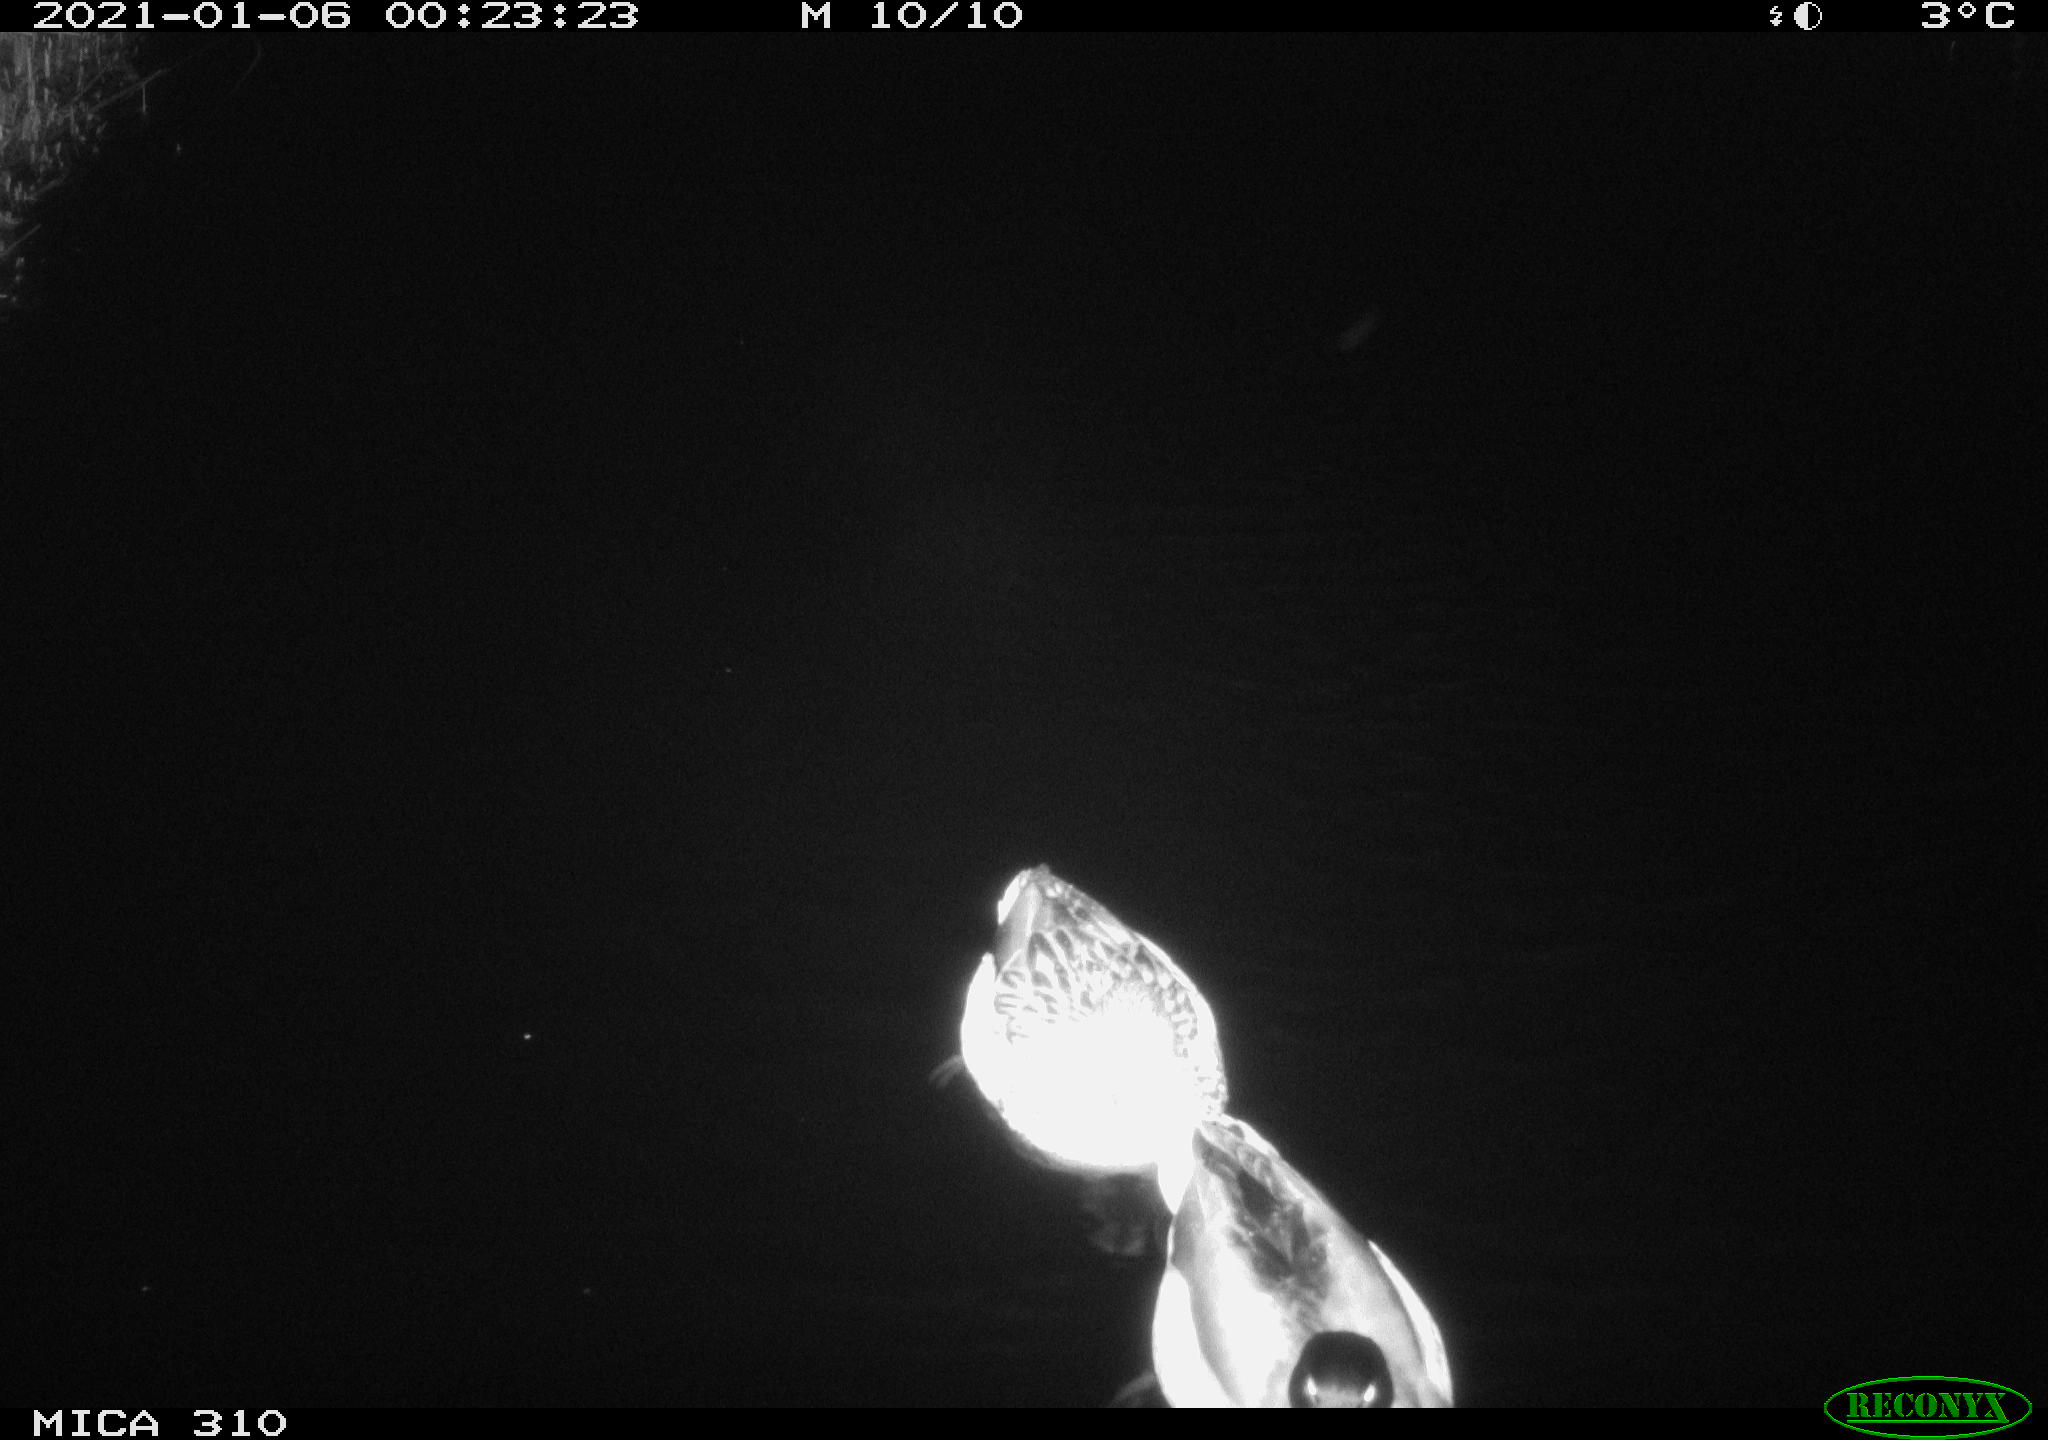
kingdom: Animalia
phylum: Chordata
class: Aves
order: Anseriformes
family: Anatidae
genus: Anas
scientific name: Anas platyrhynchos
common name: Mallard
